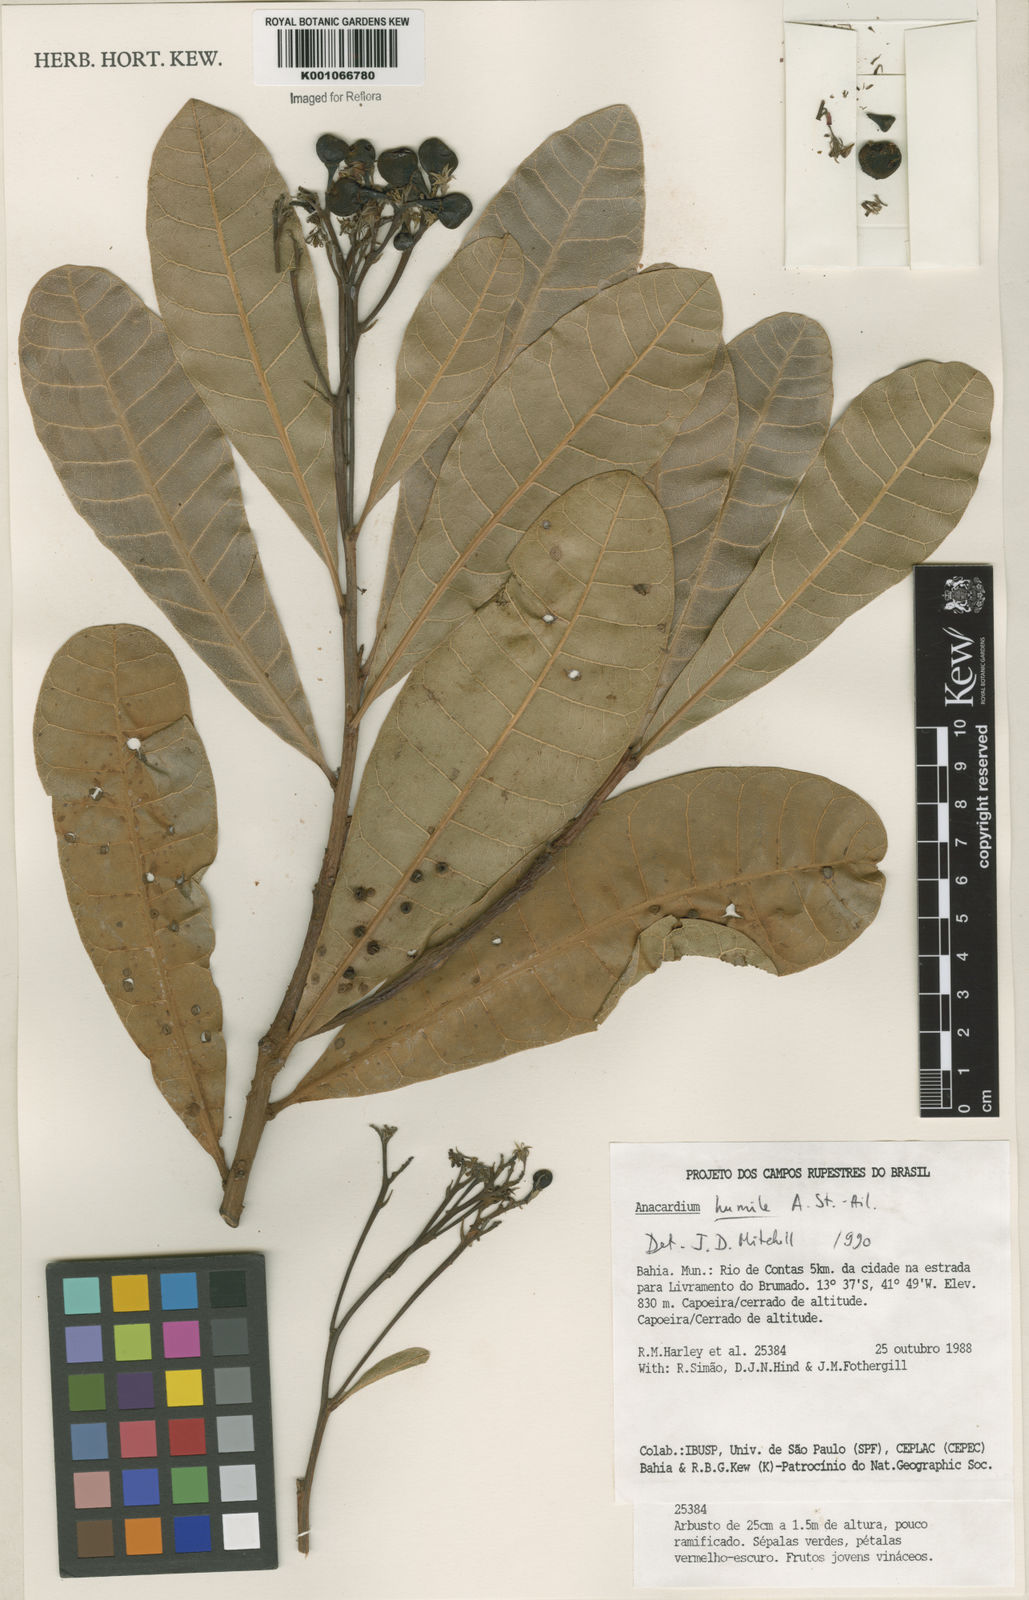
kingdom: Plantae
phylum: Tracheophyta
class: Magnoliopsida
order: Sapindales
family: Anacardiaceae
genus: Anacardium
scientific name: Anacardium humile
